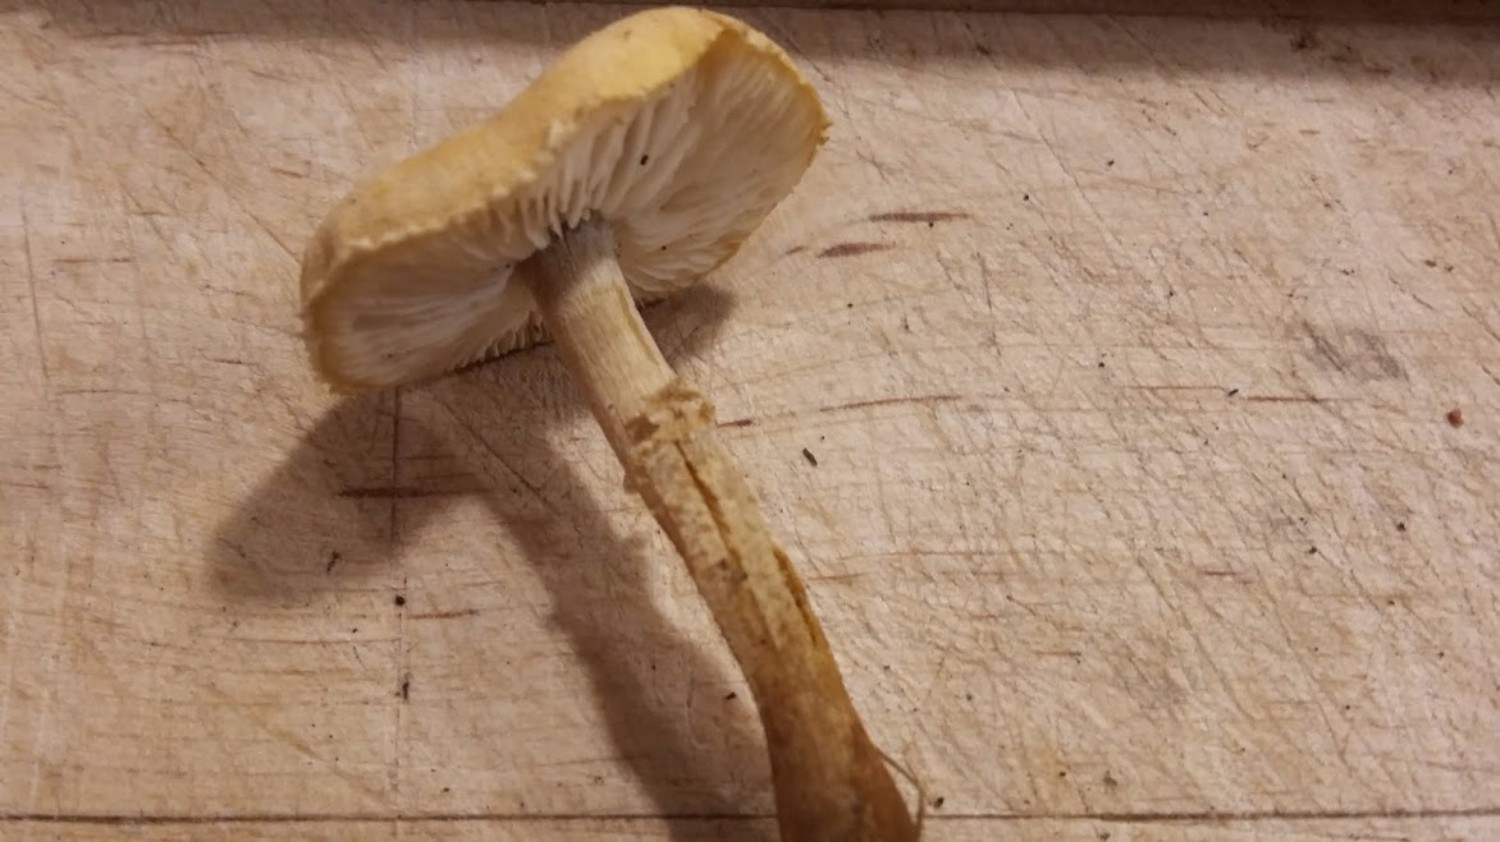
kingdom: Fungi
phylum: Basidiomycota
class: Agaricomycetes
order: Agaricales
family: Tricholomataceae
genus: Cystoderma
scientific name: Cystoderma amianthinum
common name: okkergul grynhat
